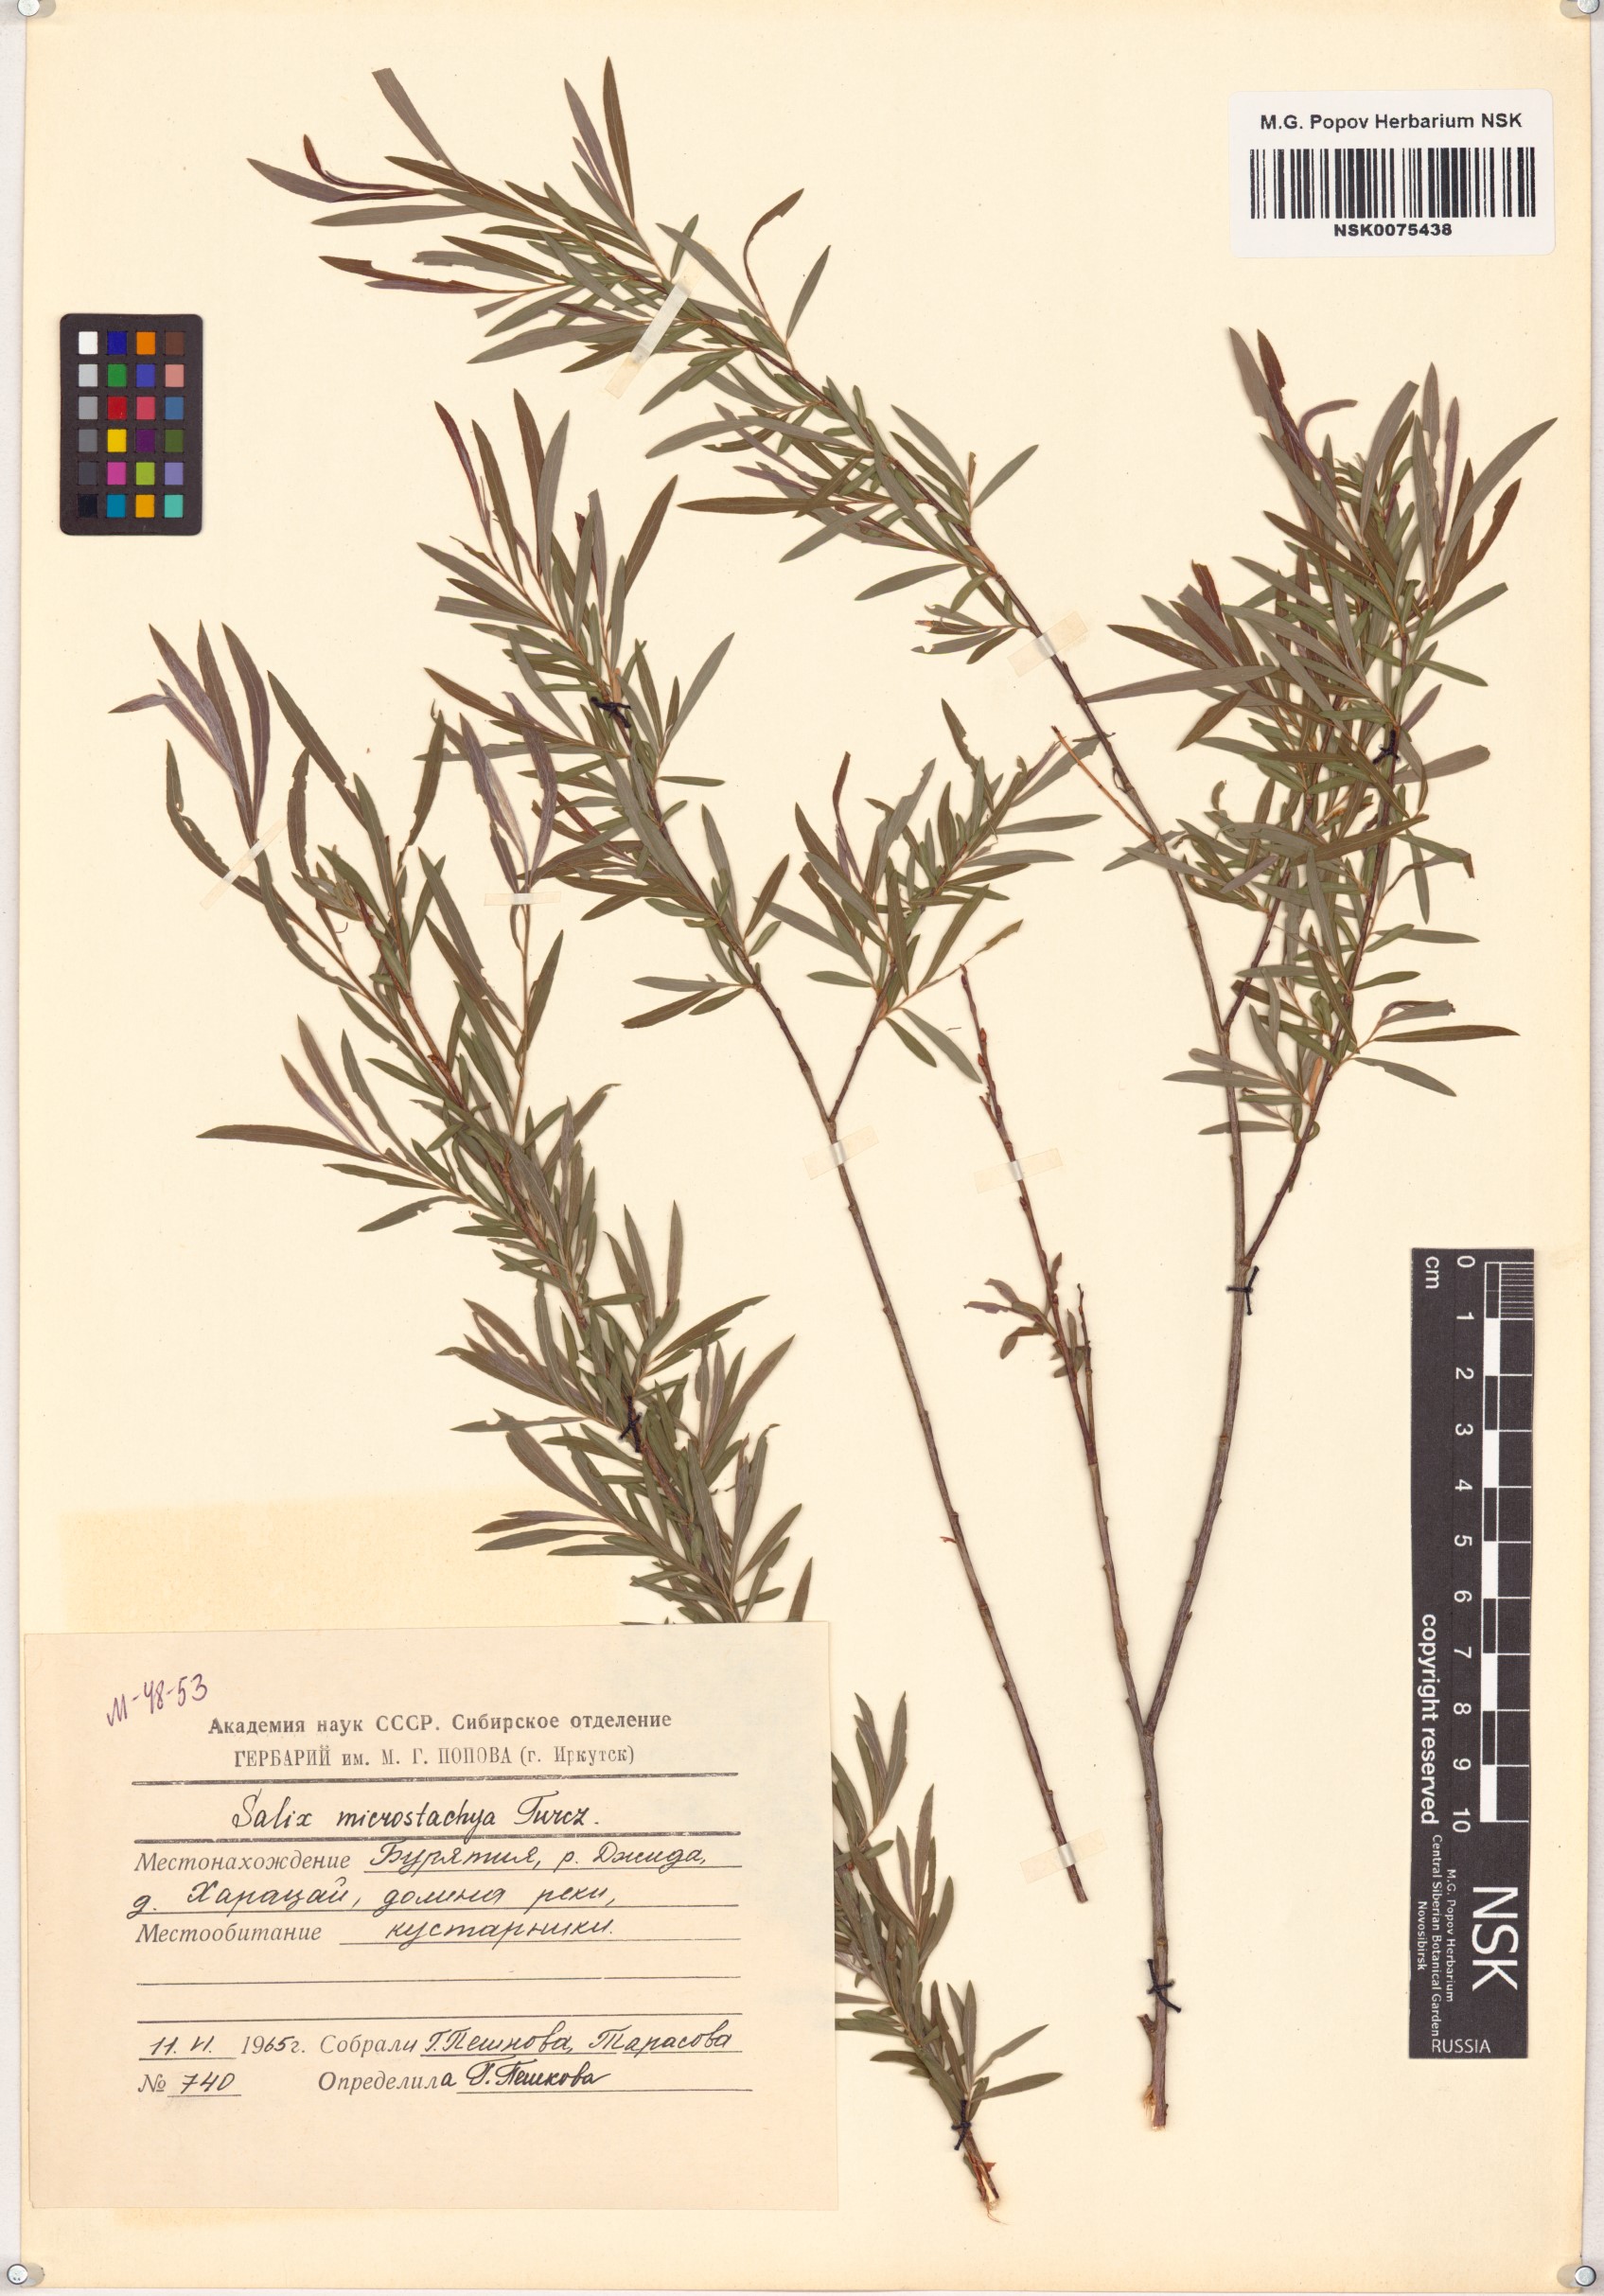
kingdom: Plantae
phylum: Tracheophyta
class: Magnoliopsida
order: Malpighiales
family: Salicaceae
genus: Salix
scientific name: Salix microstachya
